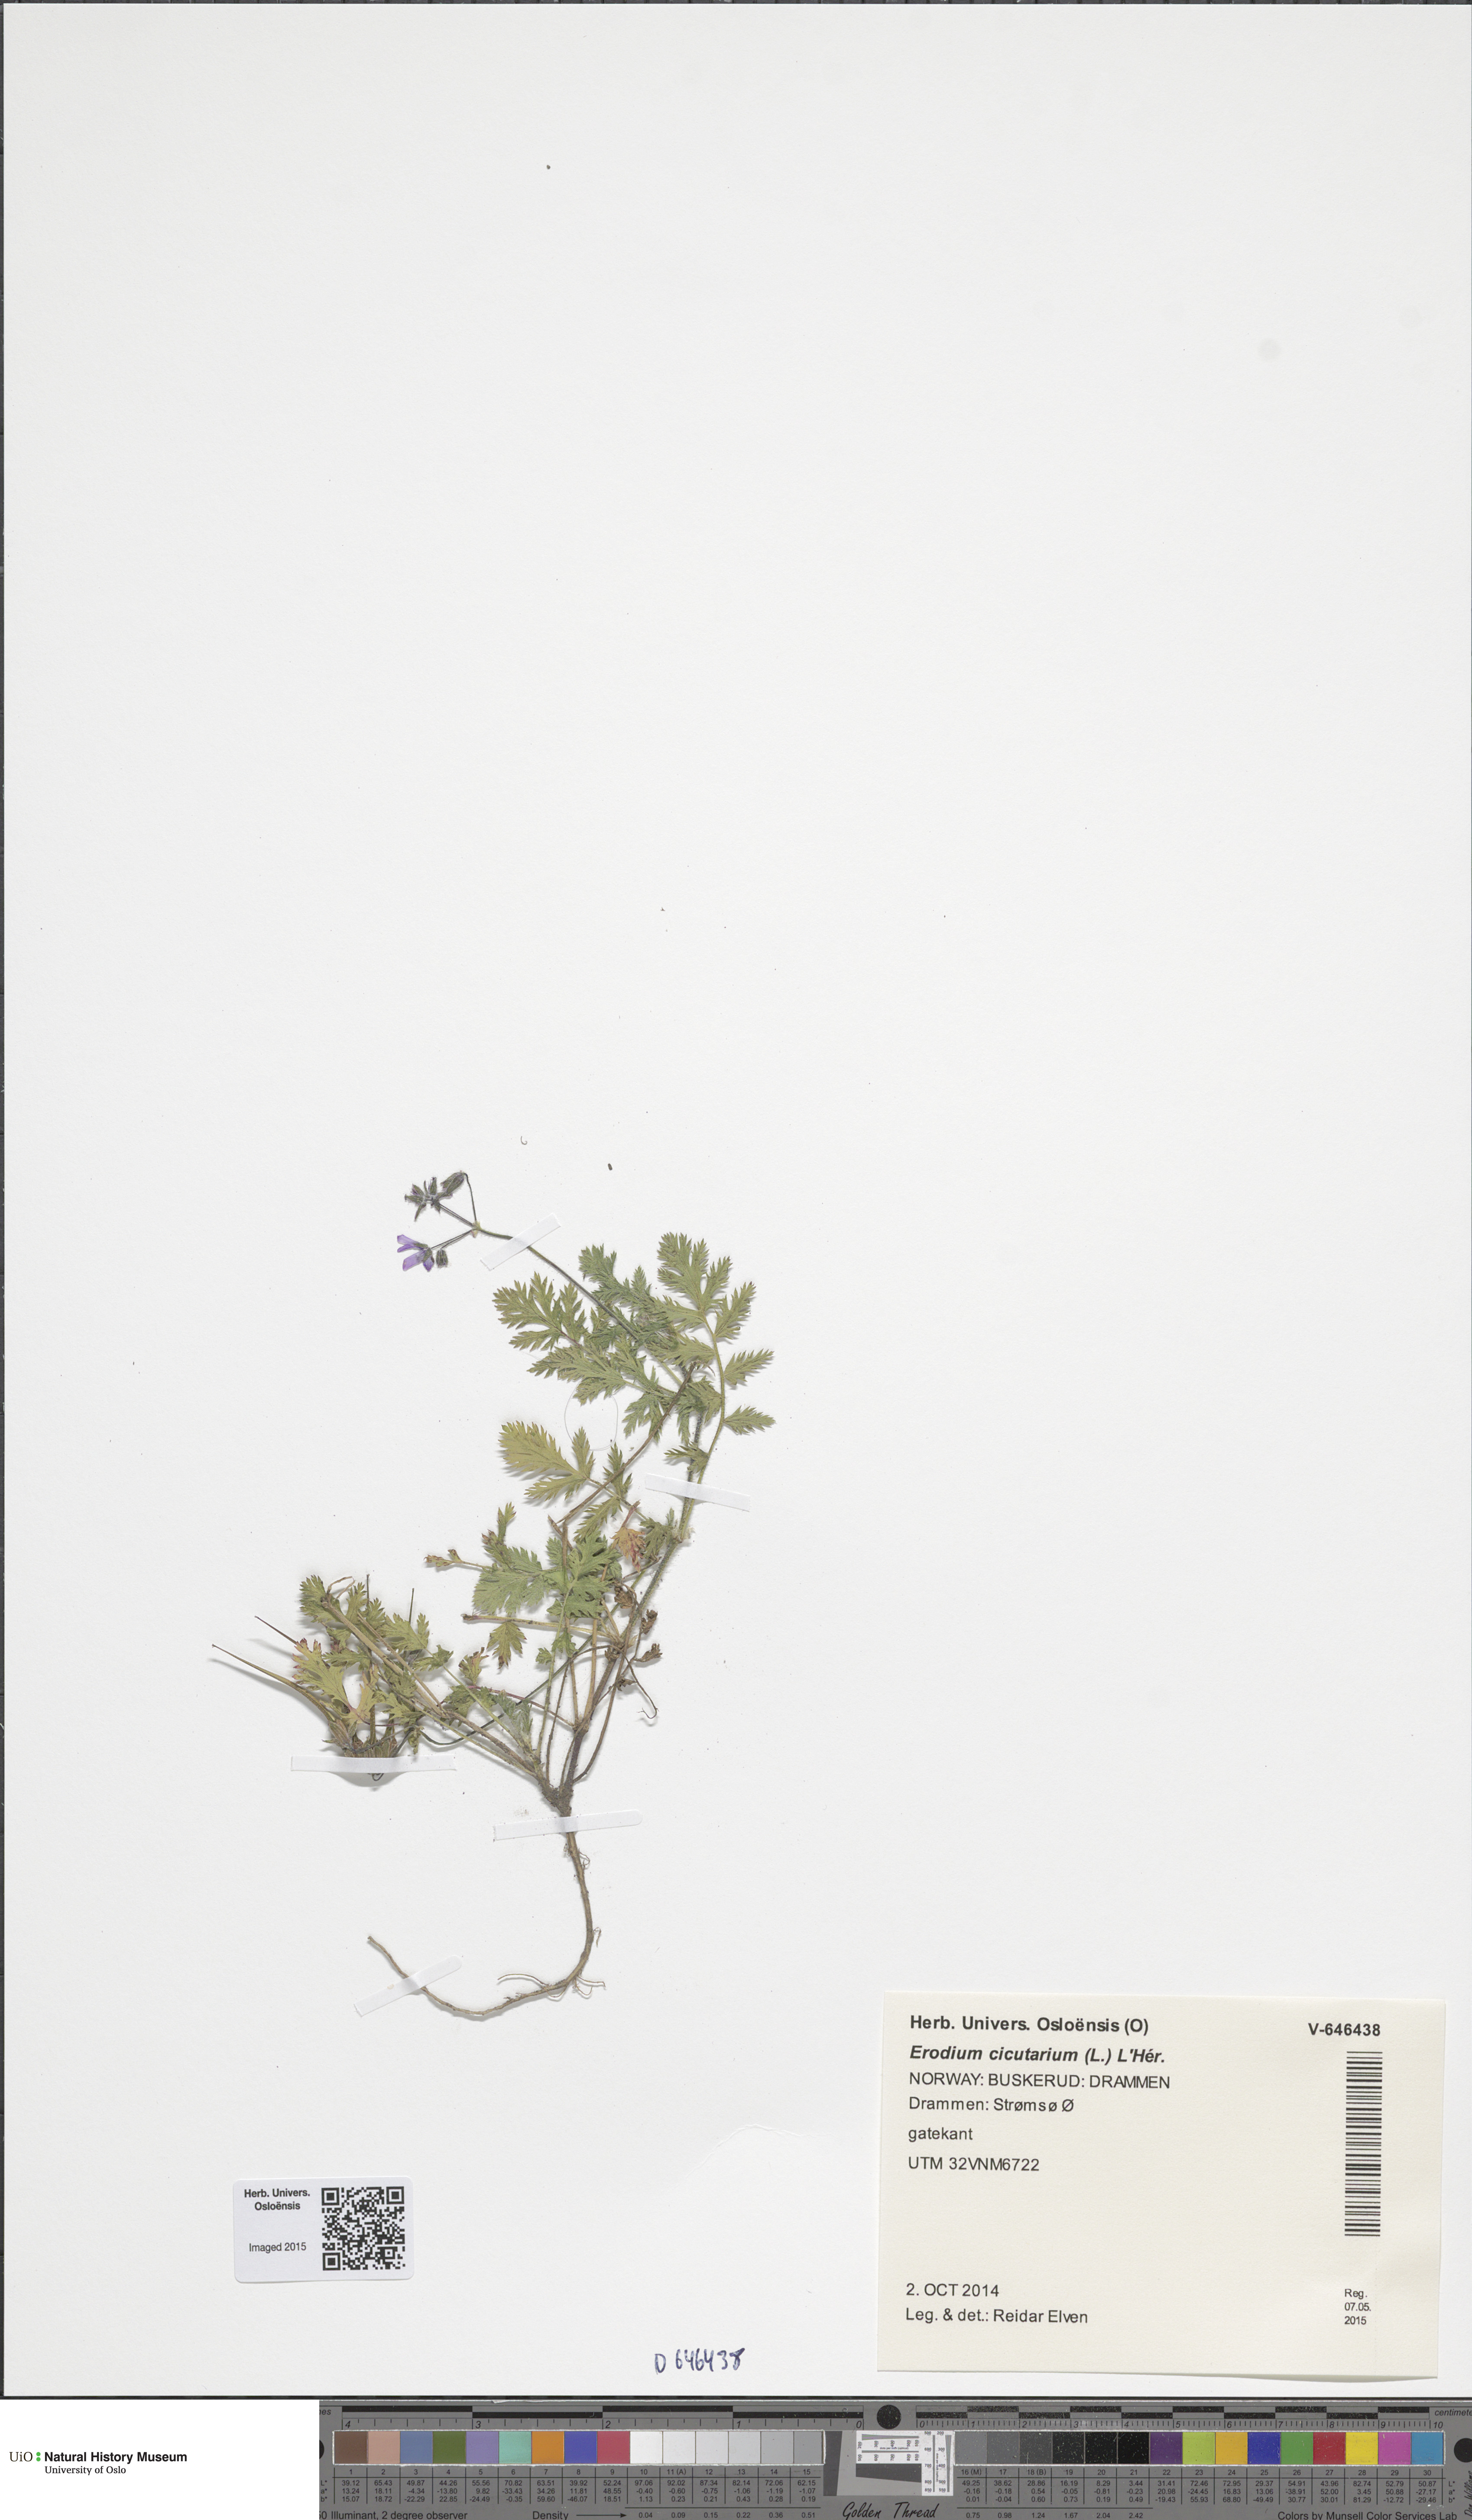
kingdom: Plantae
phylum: Tracheophyta
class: Magnoliopsida
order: Geraniales
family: Geraniaceae
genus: Erodium
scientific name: Erodium cicutarium
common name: Common stork's-bill
